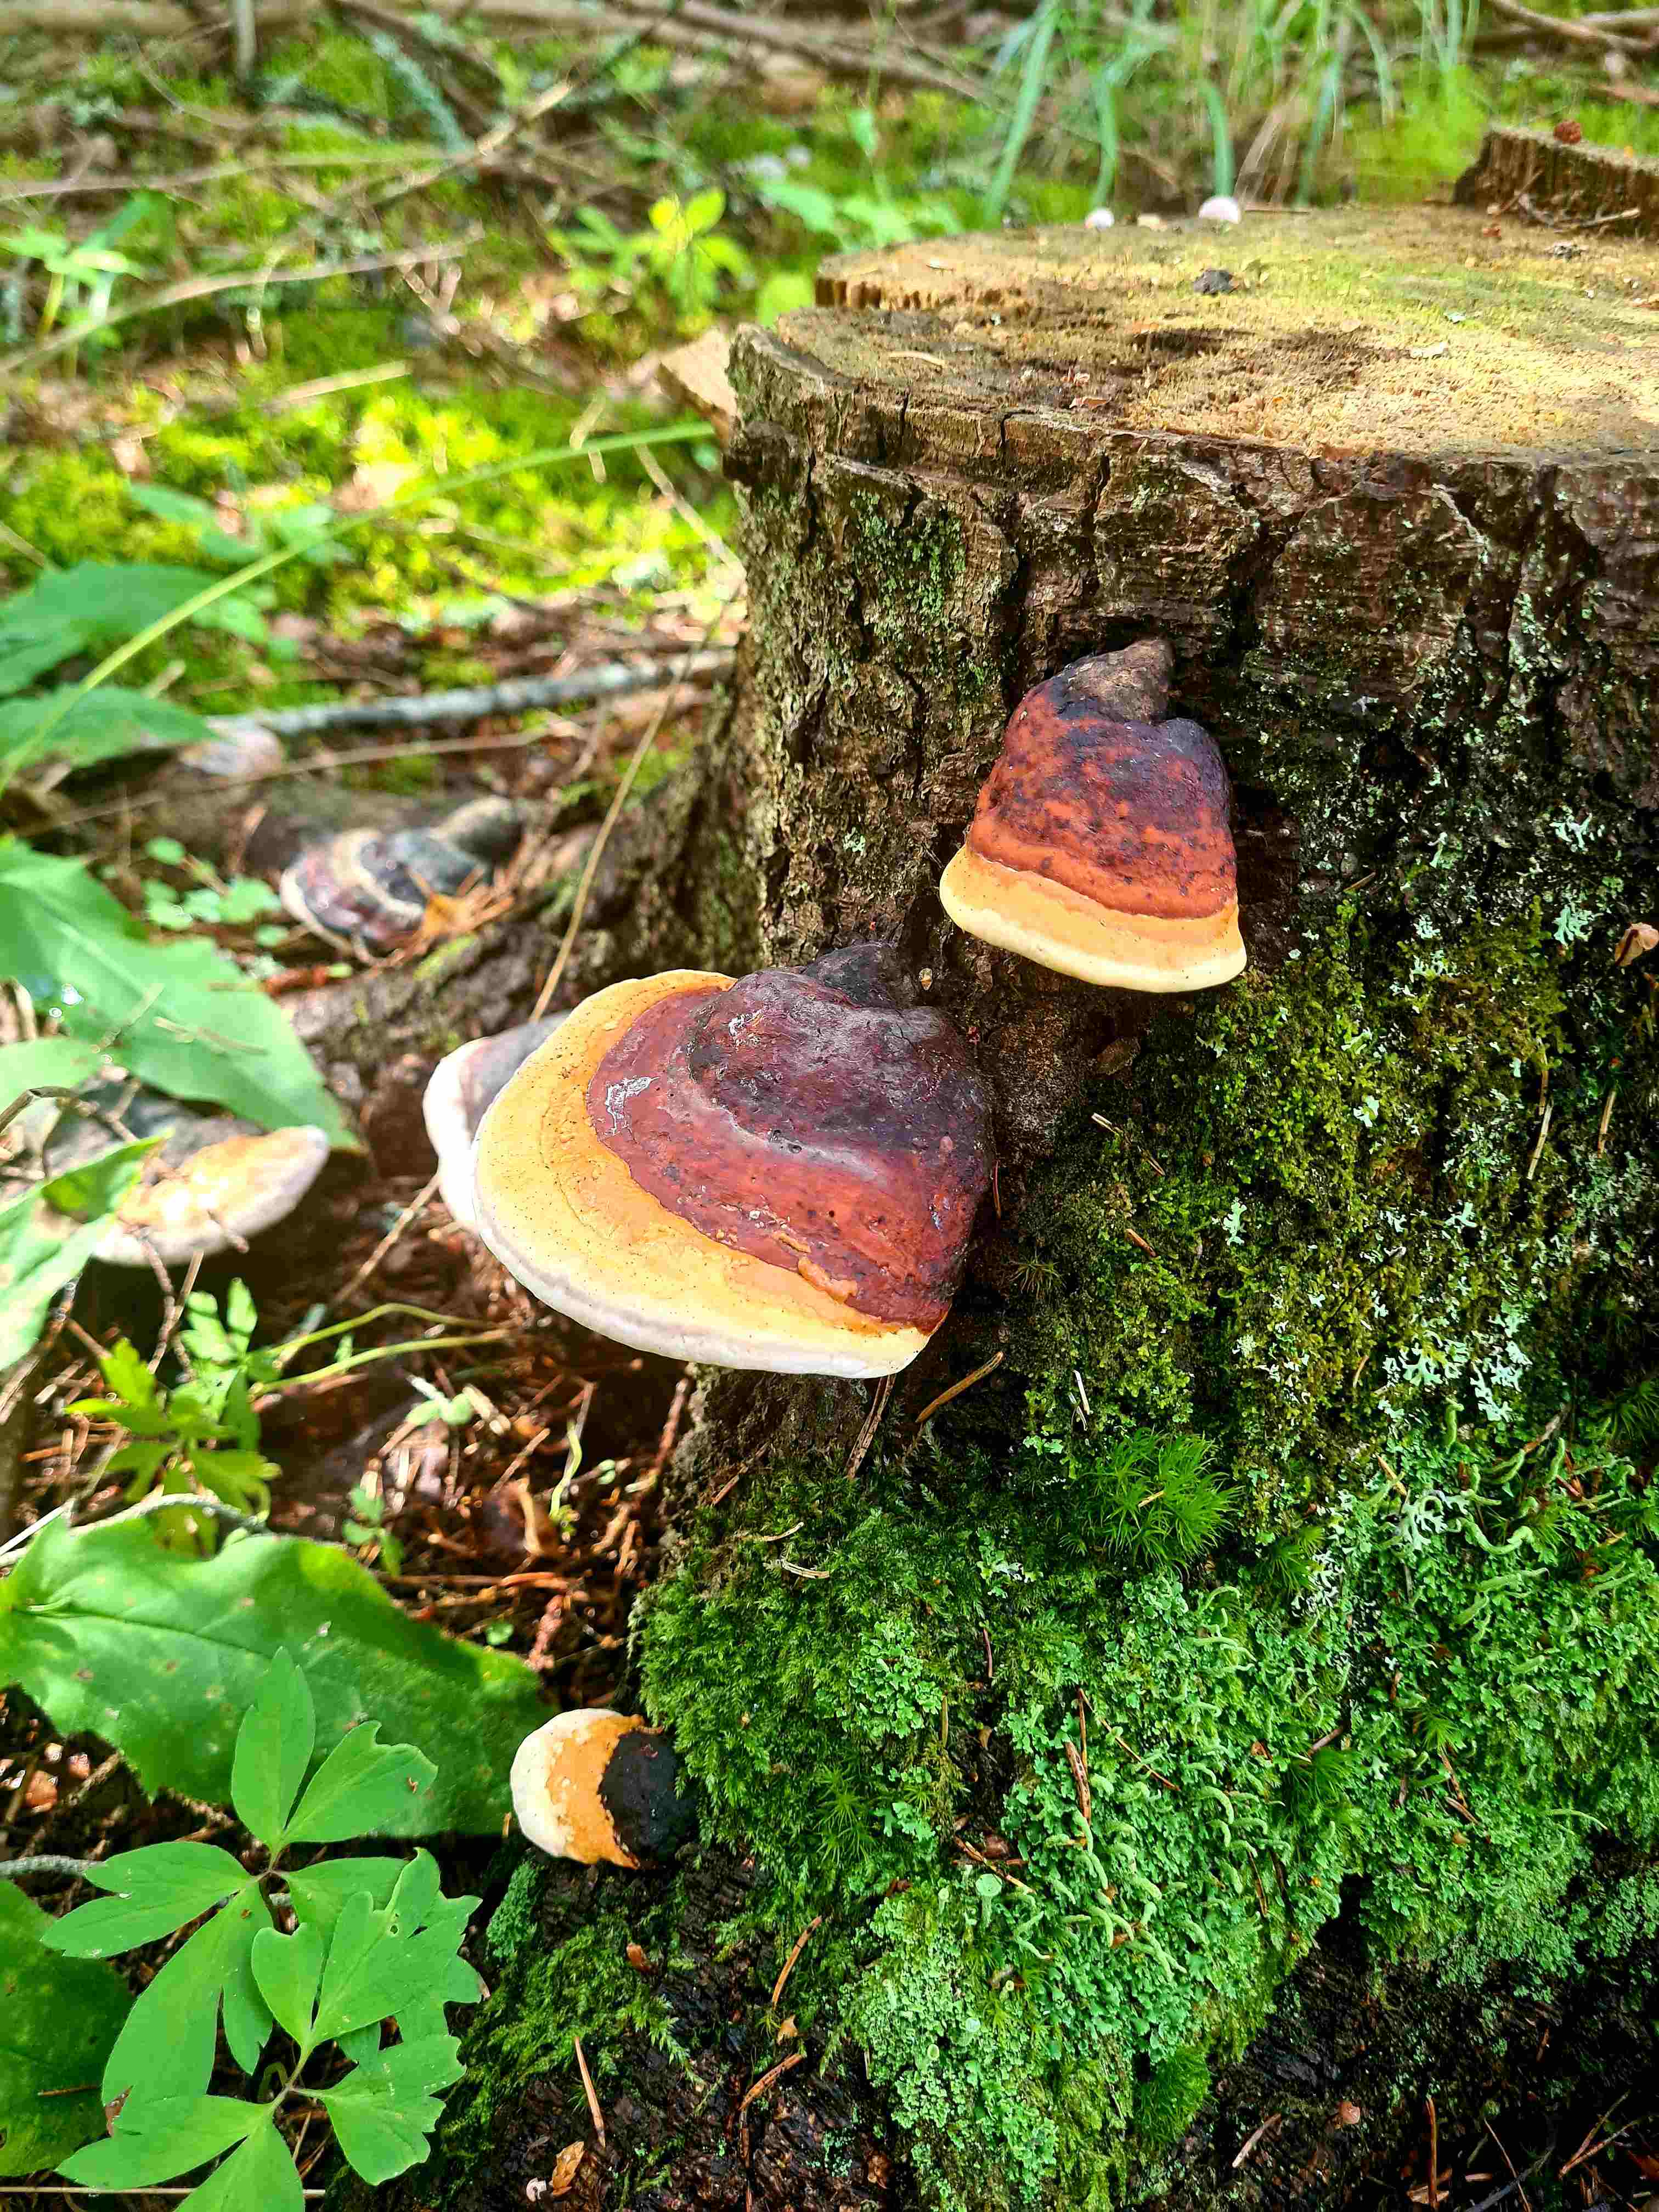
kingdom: Fungi
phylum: Basidiomycota
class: Agaricomycetes
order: Polyporales
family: Fomitopsidaceae
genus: Fomitopsis
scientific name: Fomitopsis pinicola
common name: randbæltet hovporesvamp
